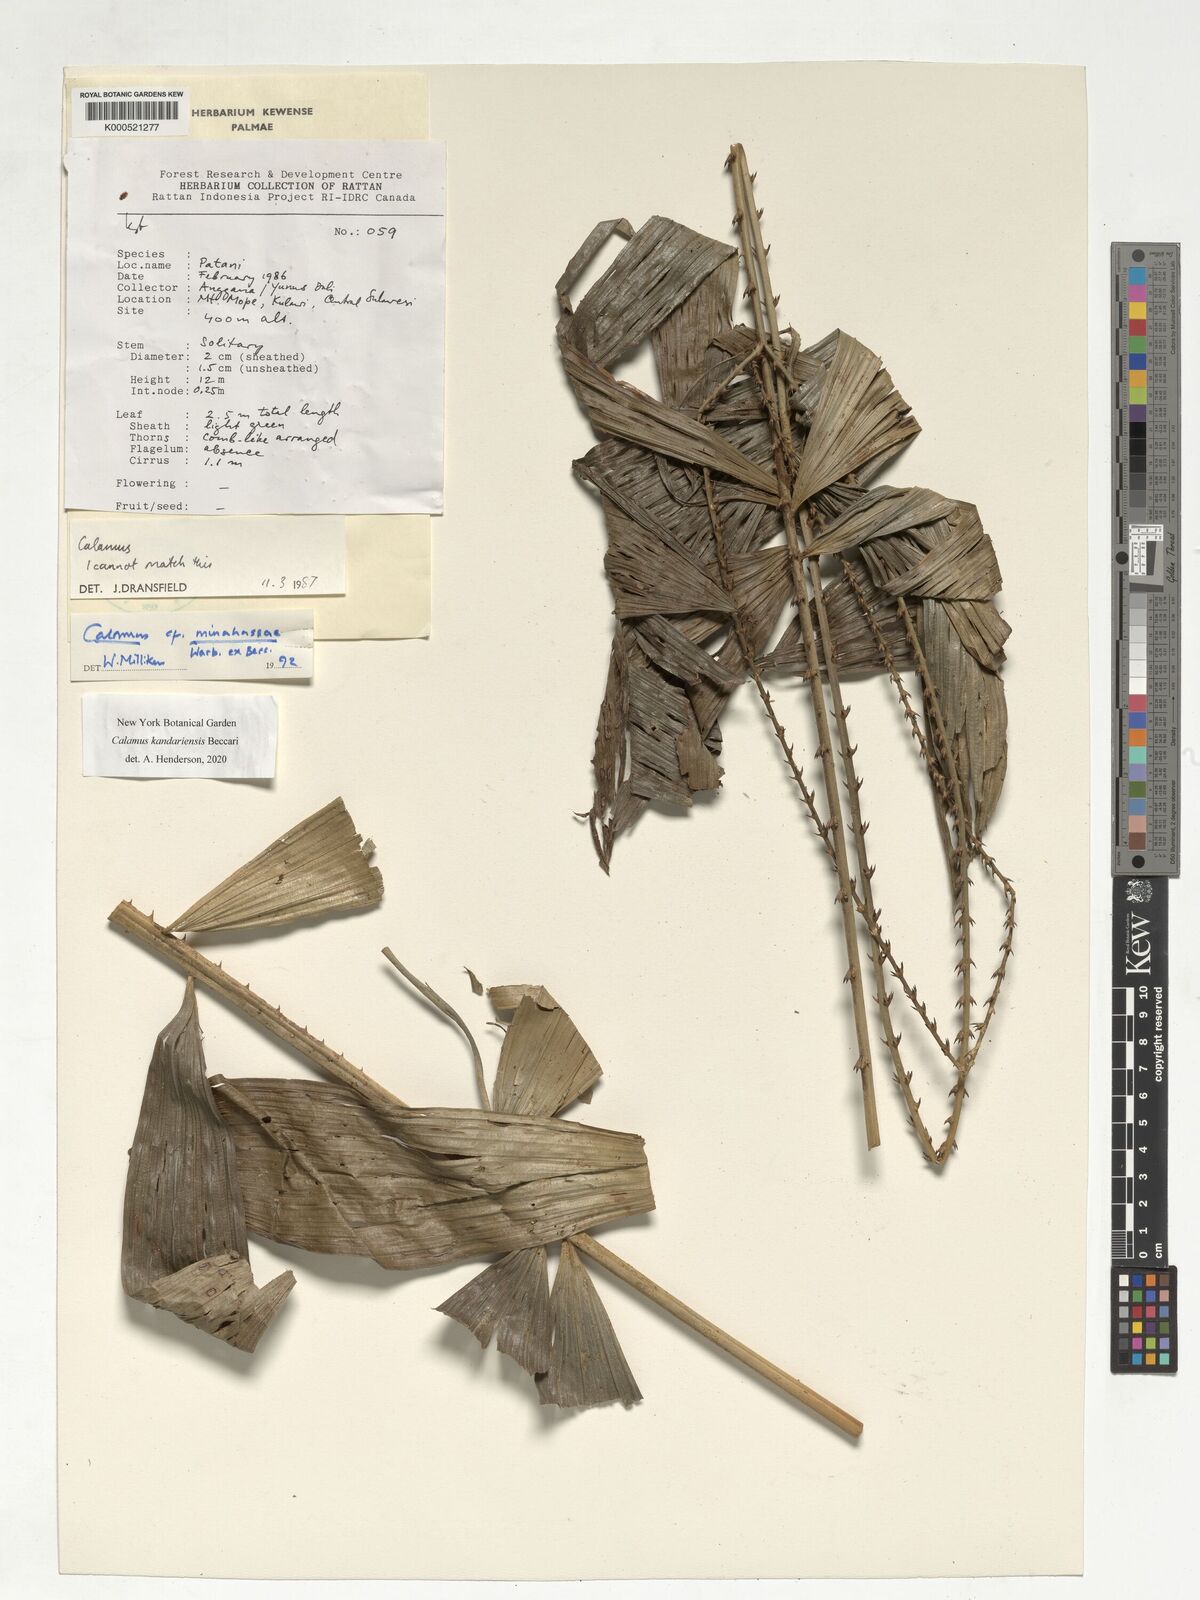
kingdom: Plantae
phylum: Tracheophyta
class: Liliopsida
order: Arecales
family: Arecaceae
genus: Calamus
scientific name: Calamus minahassae
